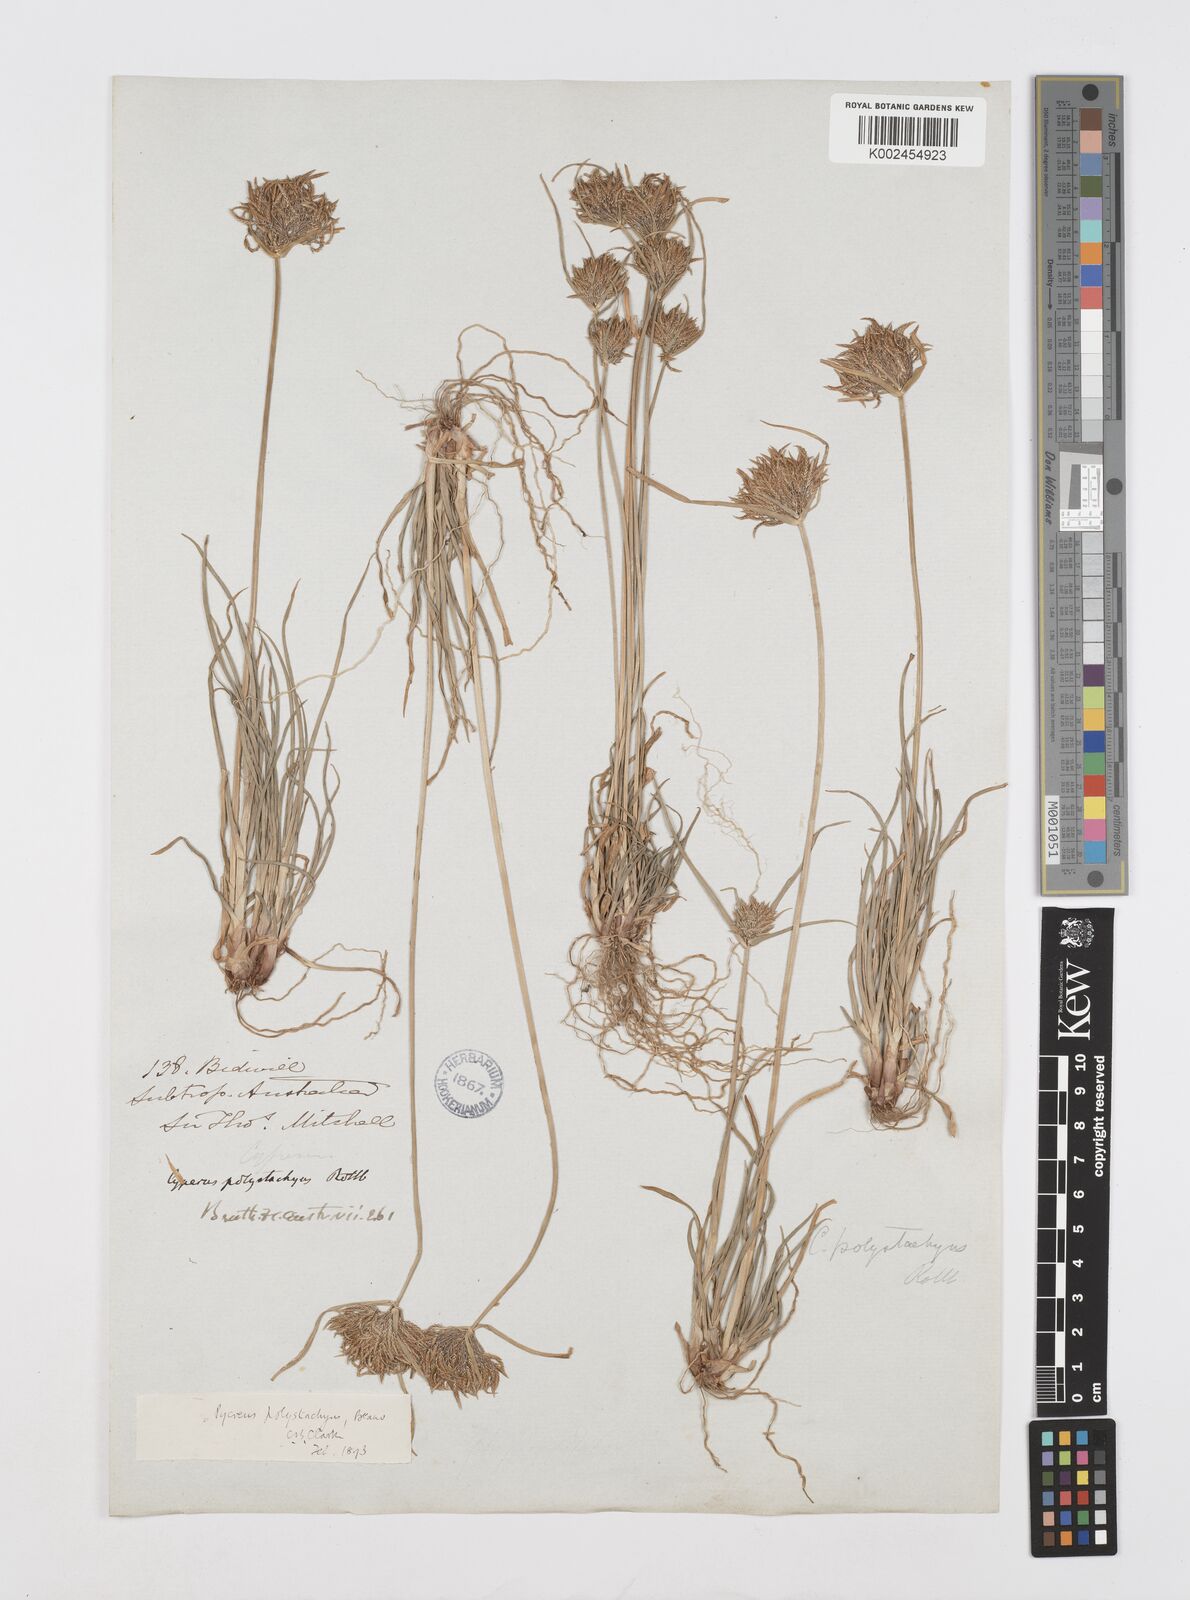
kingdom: Plantae
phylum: Tracheophyta
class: Liliopsida
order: Poales
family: Cyperaceae
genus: Cyperus
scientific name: Cyperus polystachyos
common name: Bunchy flat sedge
